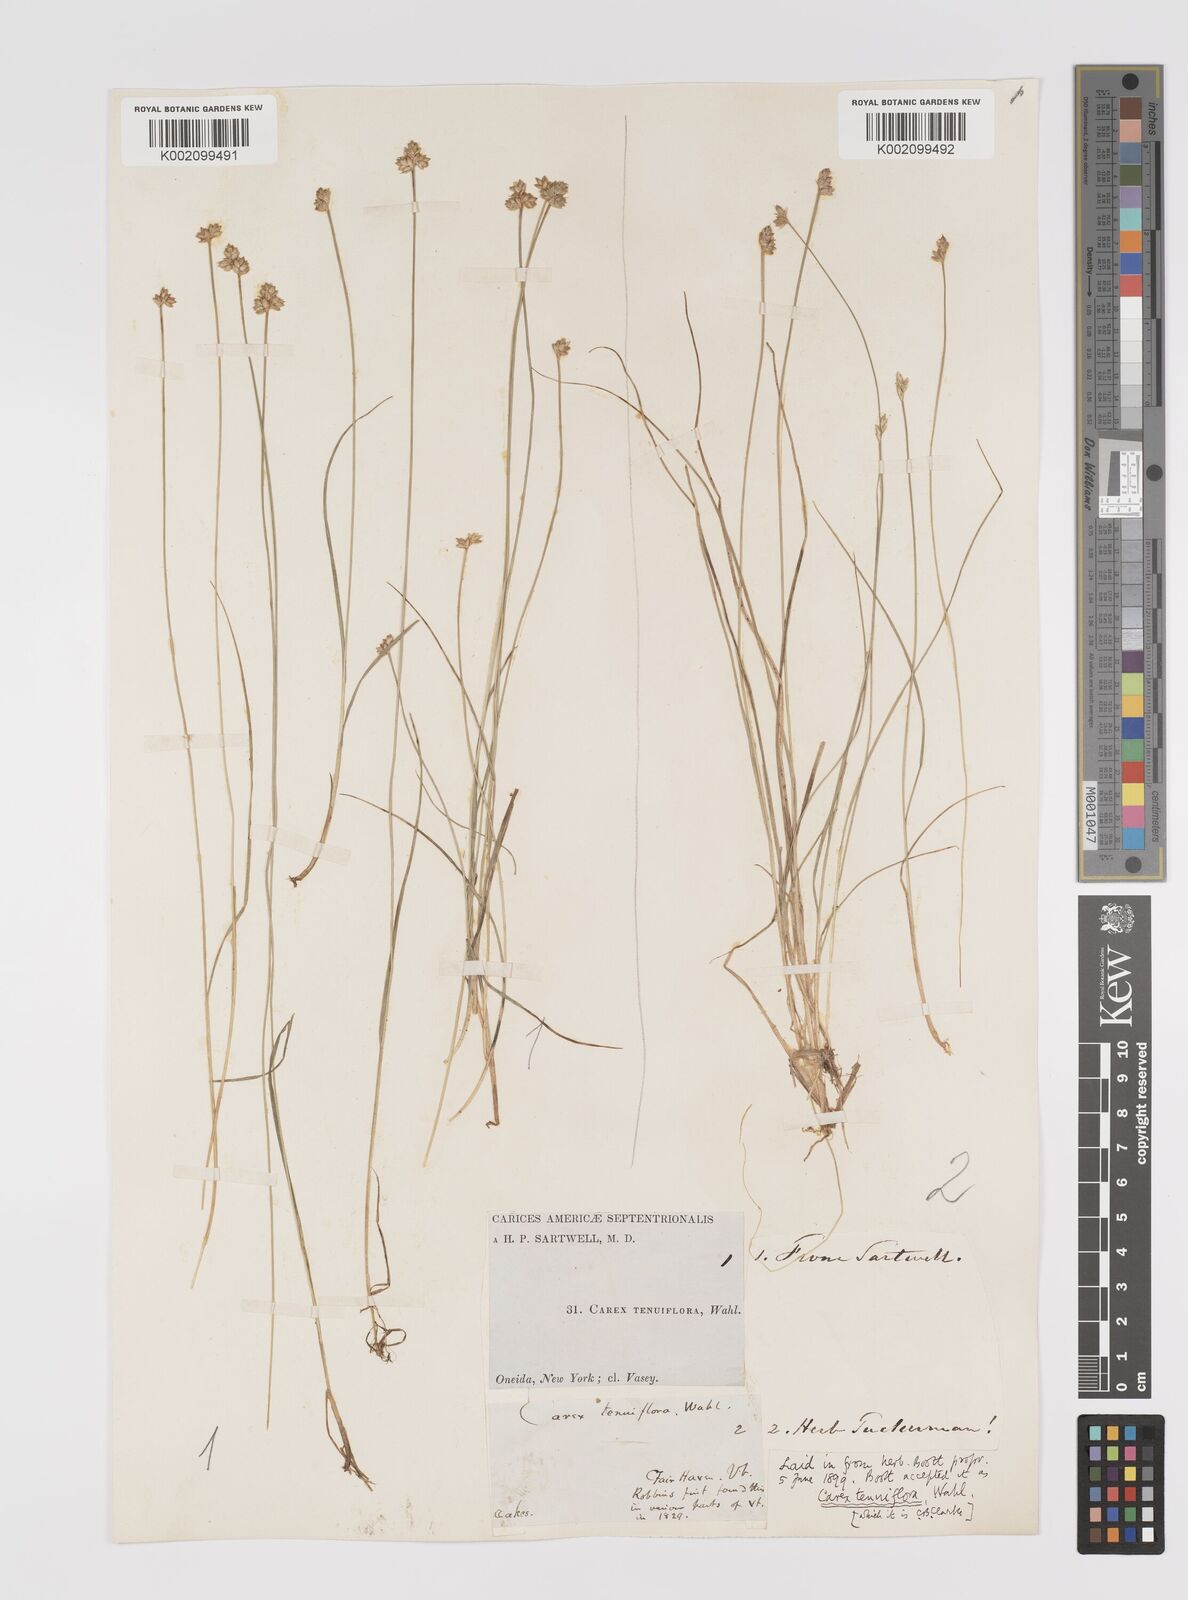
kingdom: Plantae
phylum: Tracheophyta
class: Liliopsida
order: Poales
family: Cyperaceae
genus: Carex
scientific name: Carex tenuiflora
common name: Sparse-flowered sedge
